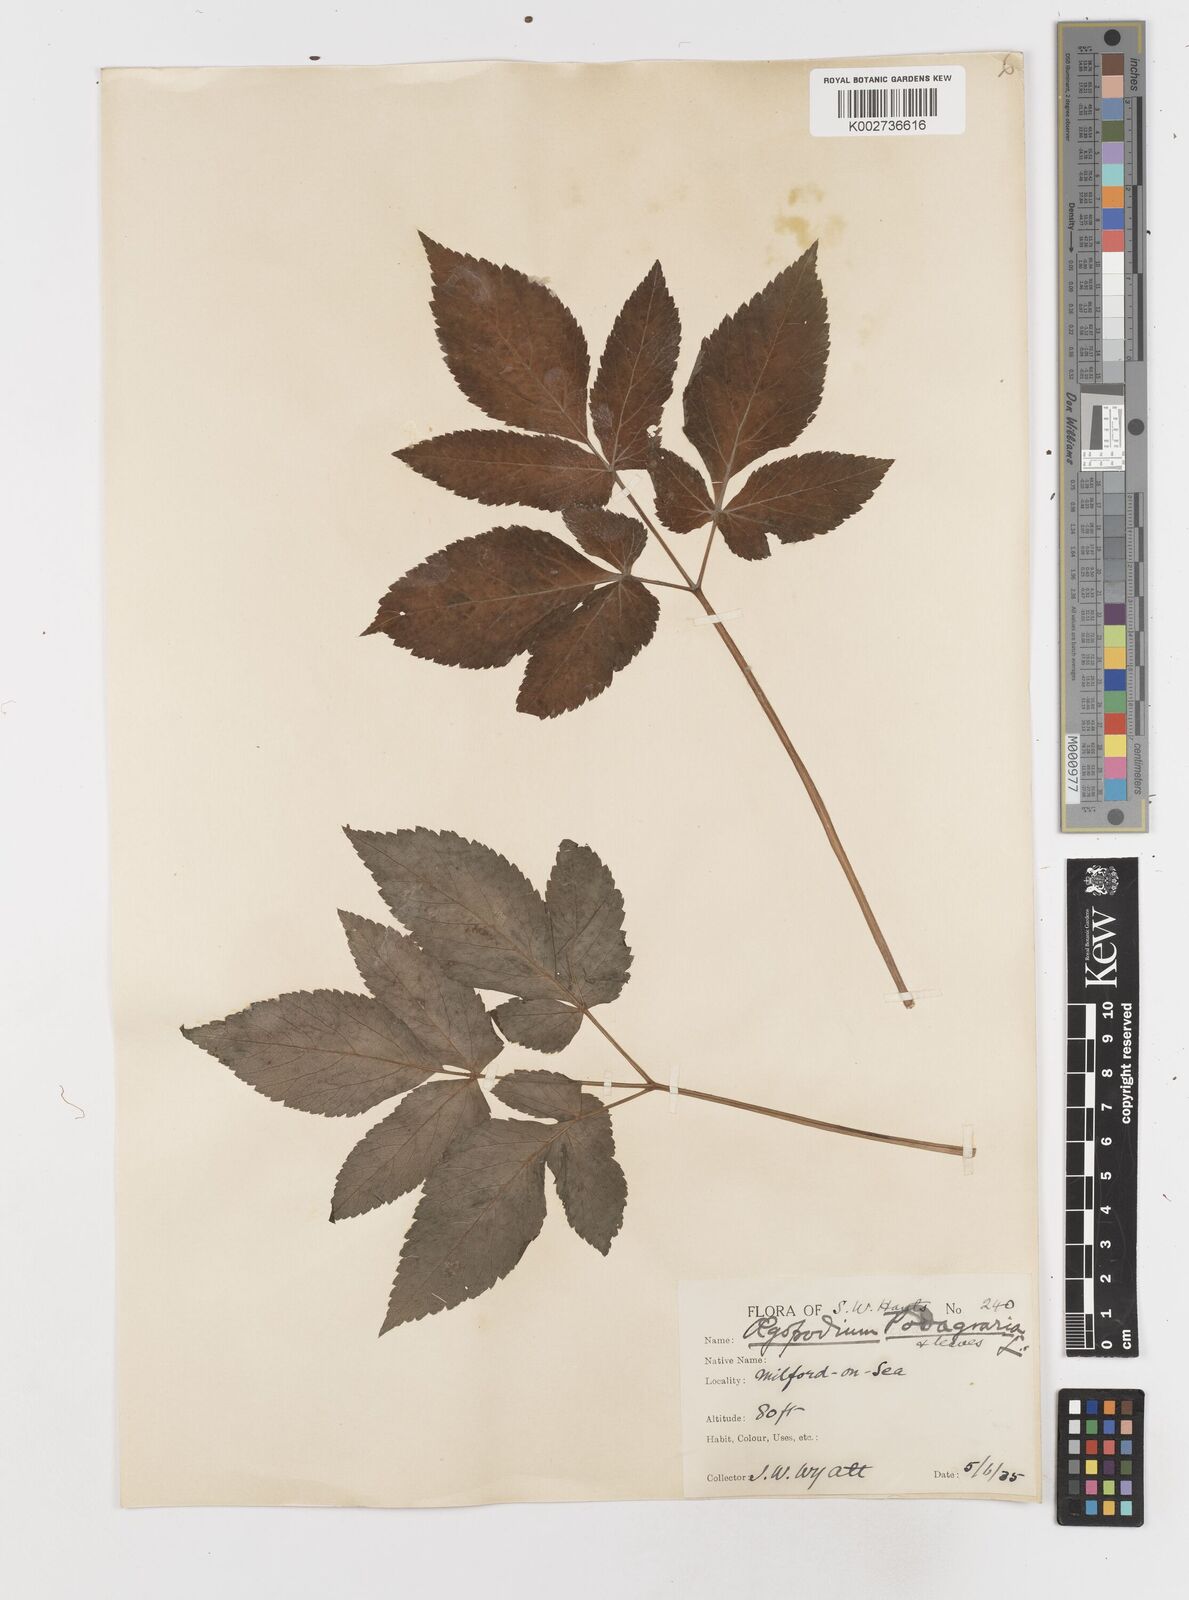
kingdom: Plantae
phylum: Tracheophyta
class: Magnoliopsida
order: Apiales
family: Apiaceae
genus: Aegopodium
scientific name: Aegopodium
